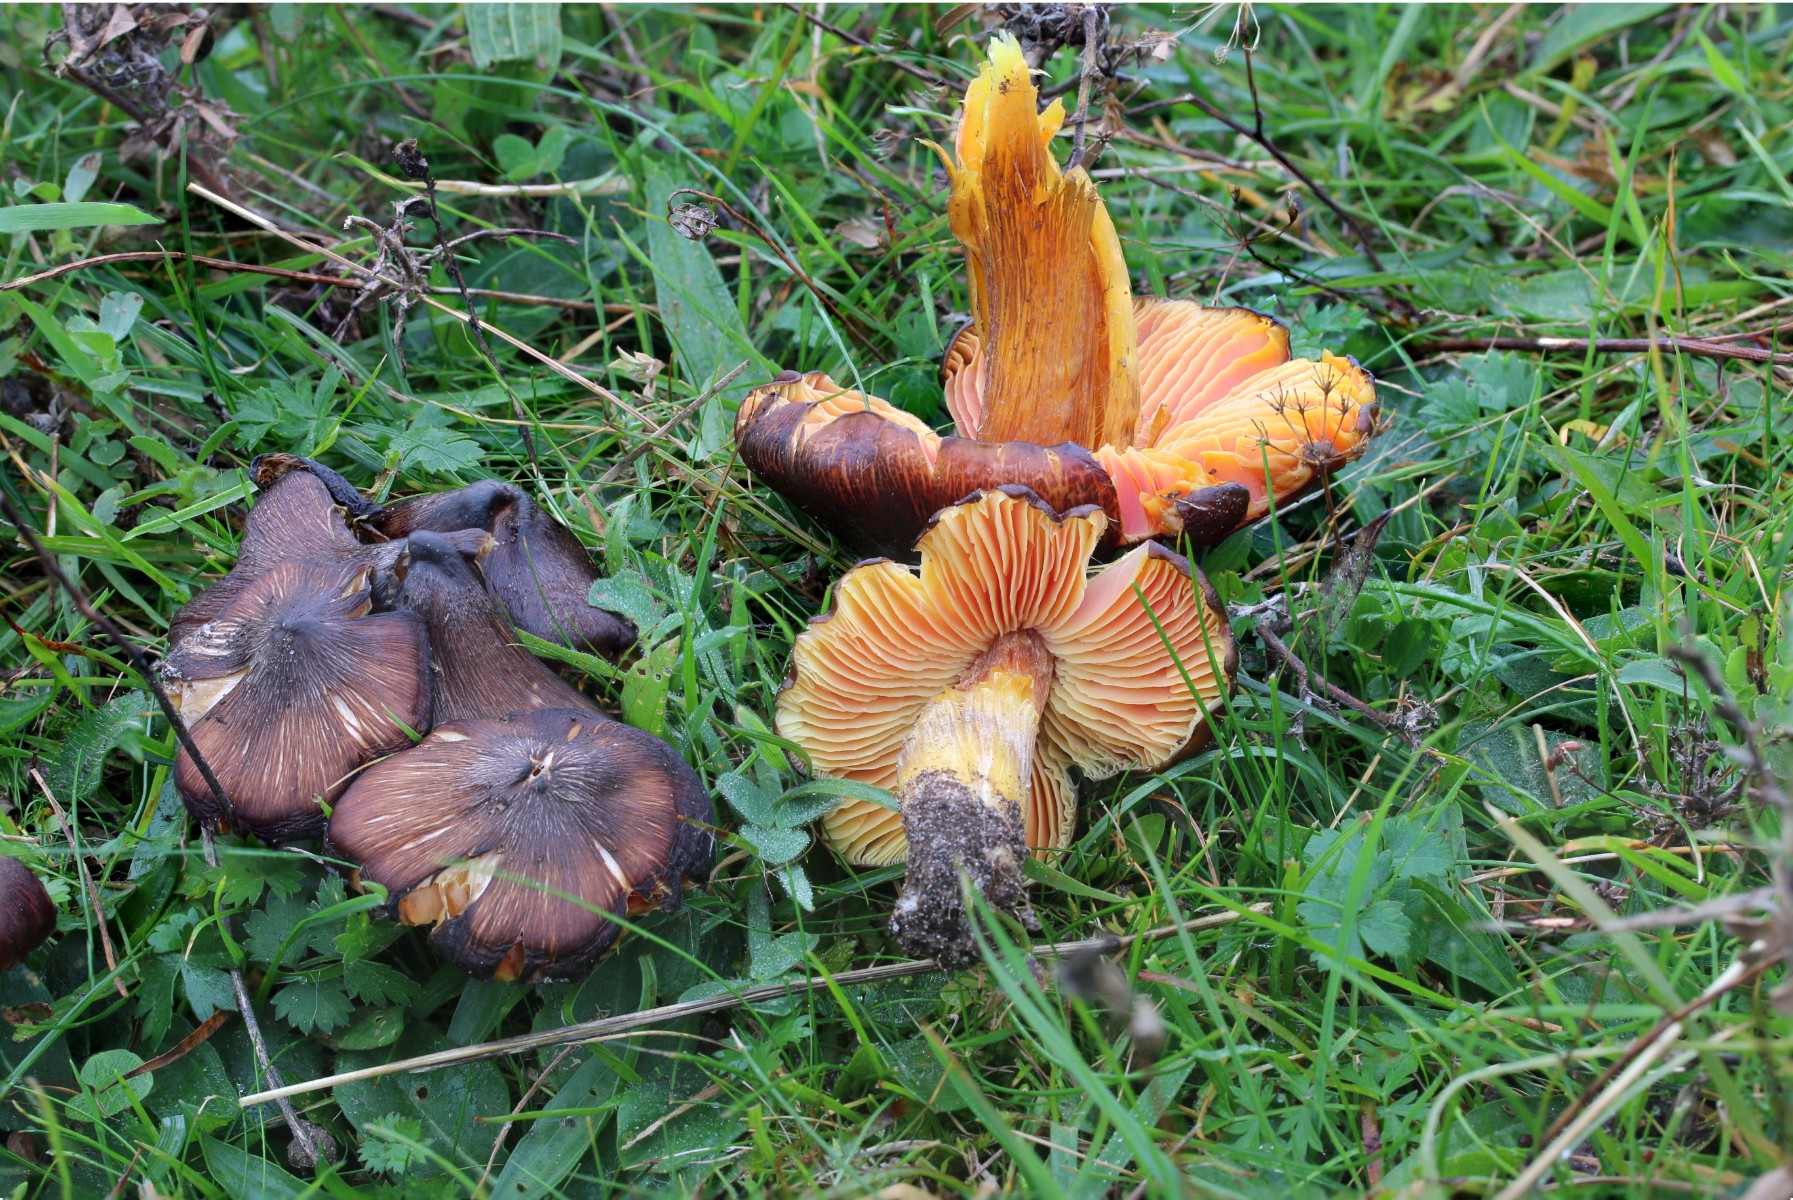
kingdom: Fungi
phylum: Basidiomycota
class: Agaricomycetes
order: Agaricales
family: Hygrophoraceae
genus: Hygrocybe
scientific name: Hygrocybe spadicea
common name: daddelbrun vokshat
